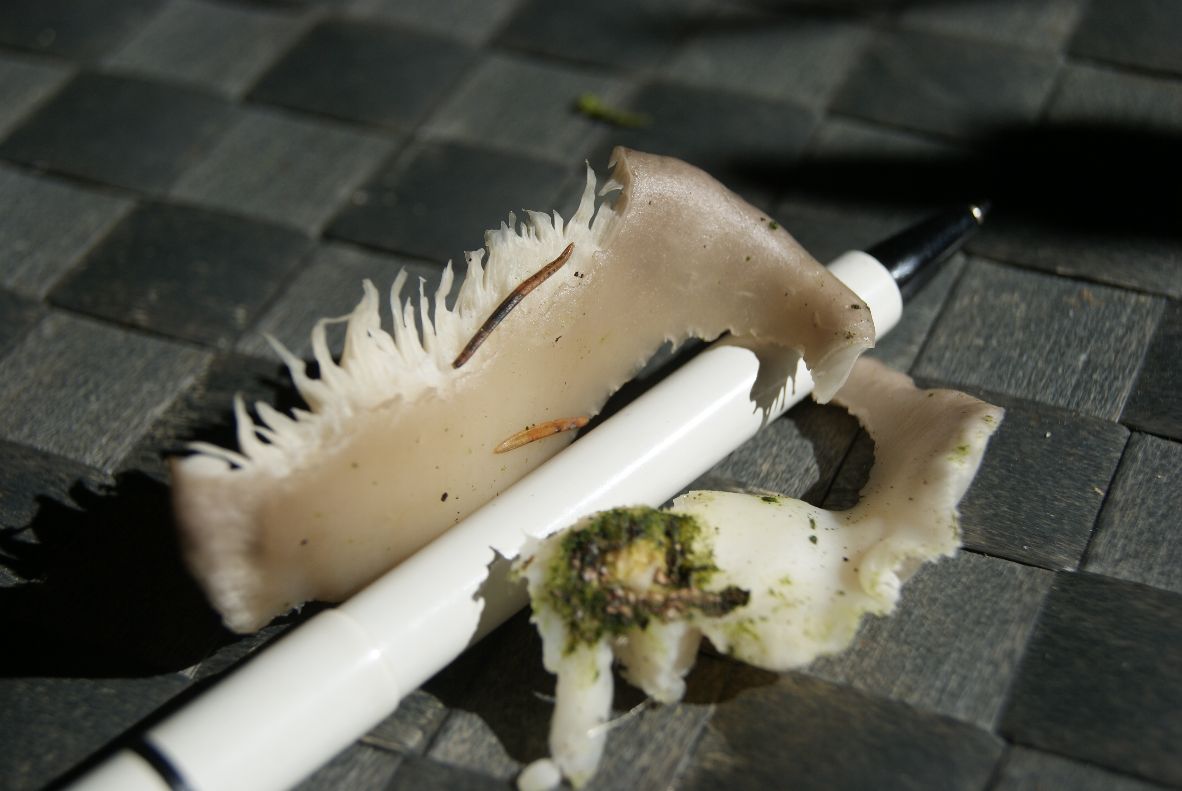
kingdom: Fungi
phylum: Basidiomycota
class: Agaricomycetes
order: Agaricales
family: Pleurotaceae
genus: Pleurotus
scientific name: Pleurotus pulmonarius
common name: sommer-østershat
